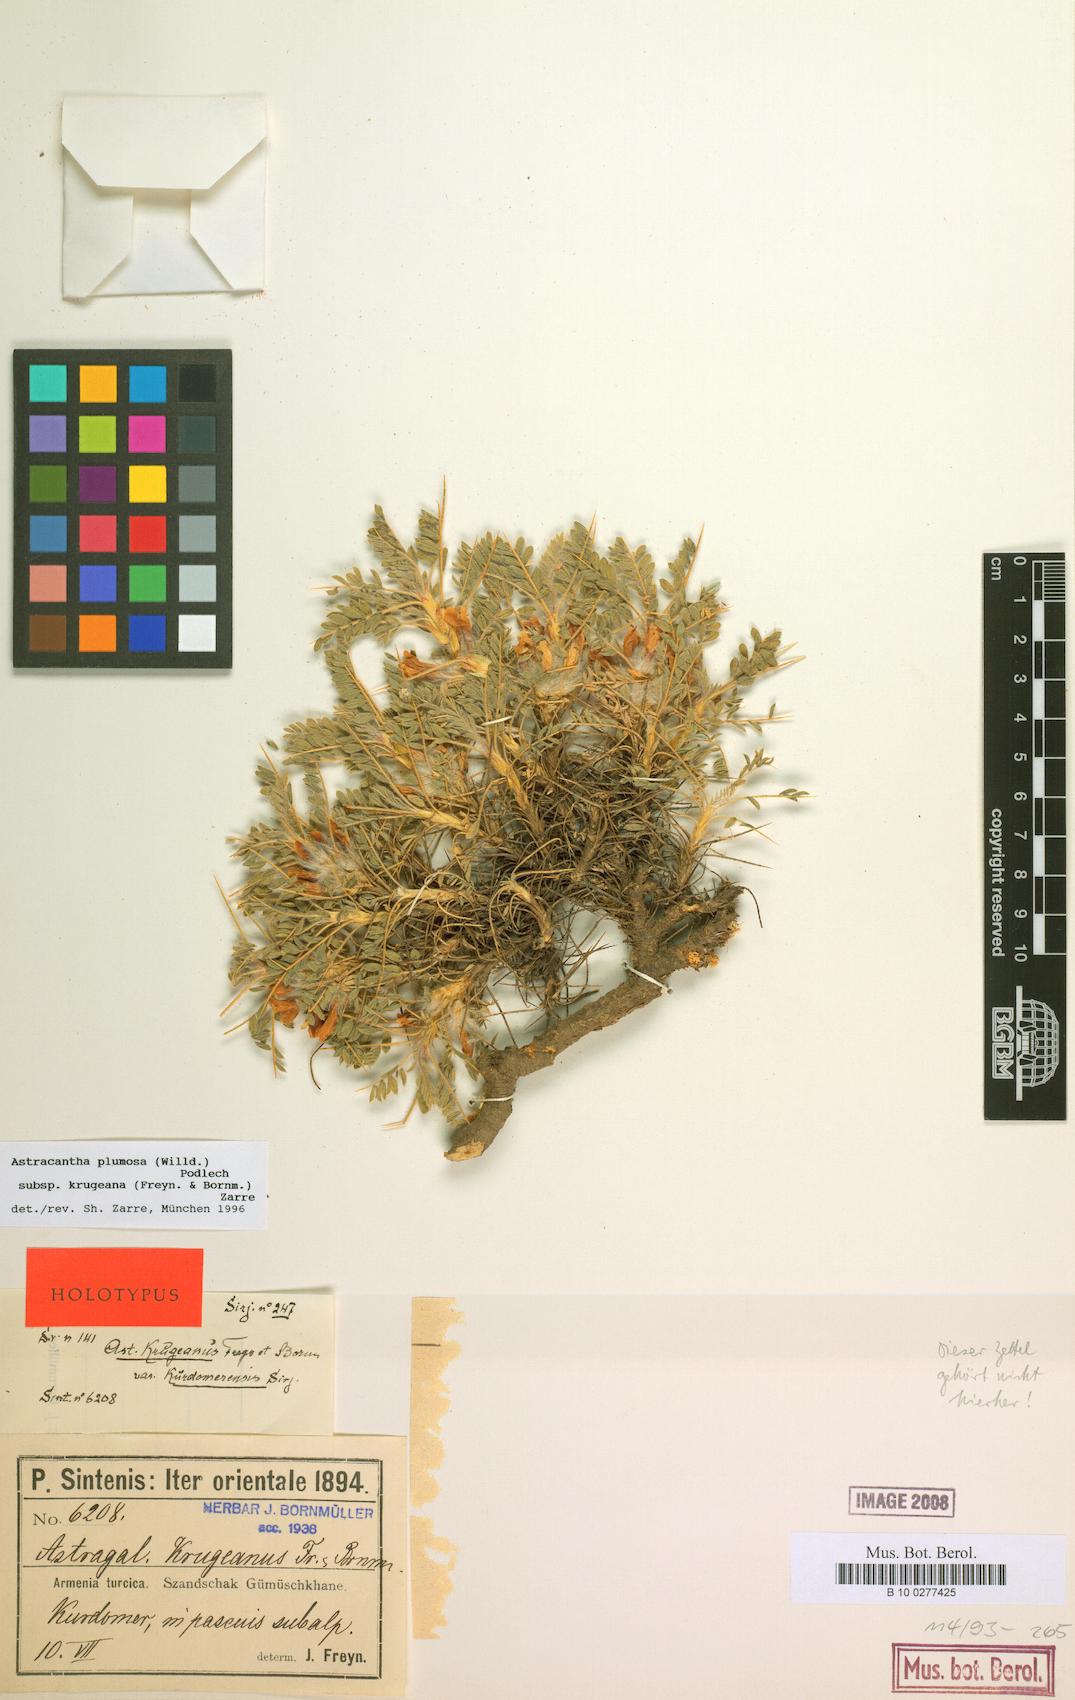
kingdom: Plantae
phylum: Tracheophyta
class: Magnoliopsida
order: Fabales
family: Fabaceae
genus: Astragalus
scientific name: Astragalus plumosus
